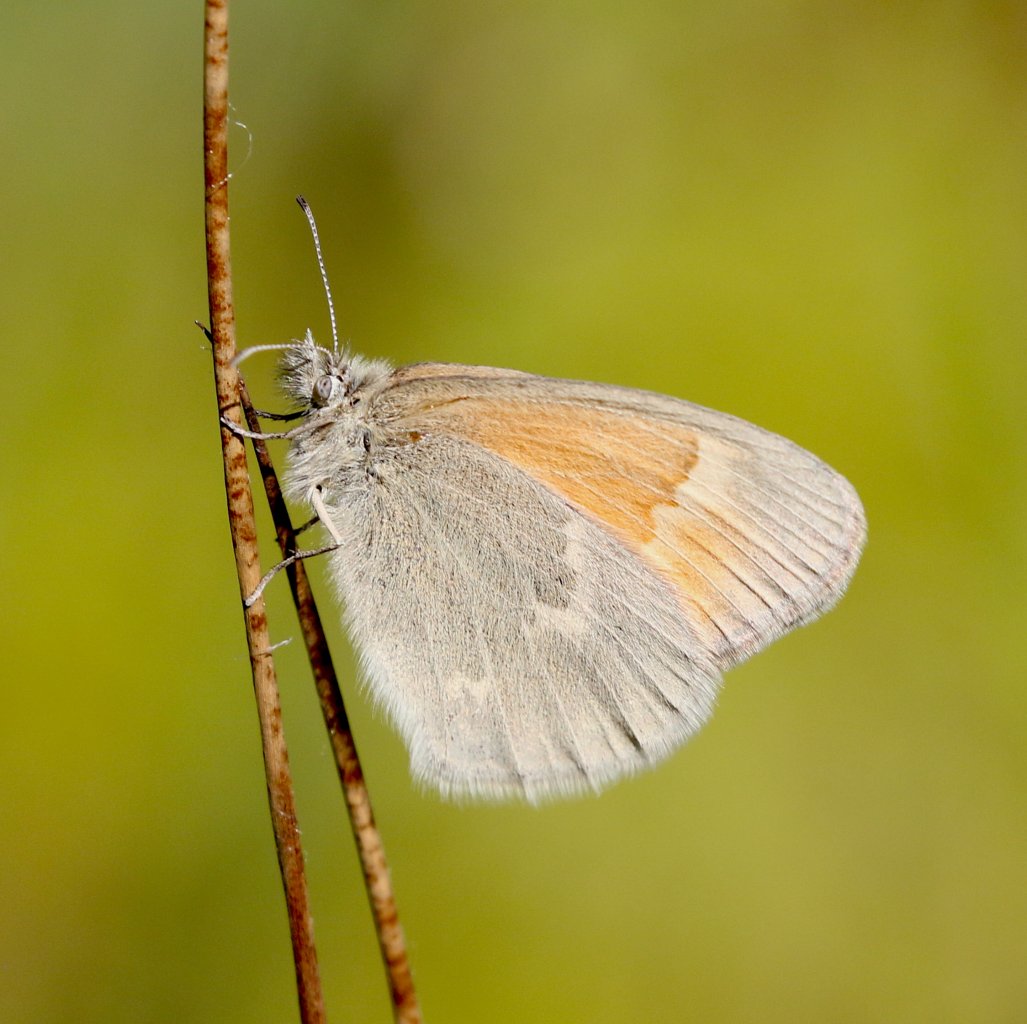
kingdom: Animalia
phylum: Arthropoda
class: Insecta
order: Lepidoptera
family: Nymphalidae
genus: Coenonympha
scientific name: Coenonympha tullia
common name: Large Heath
